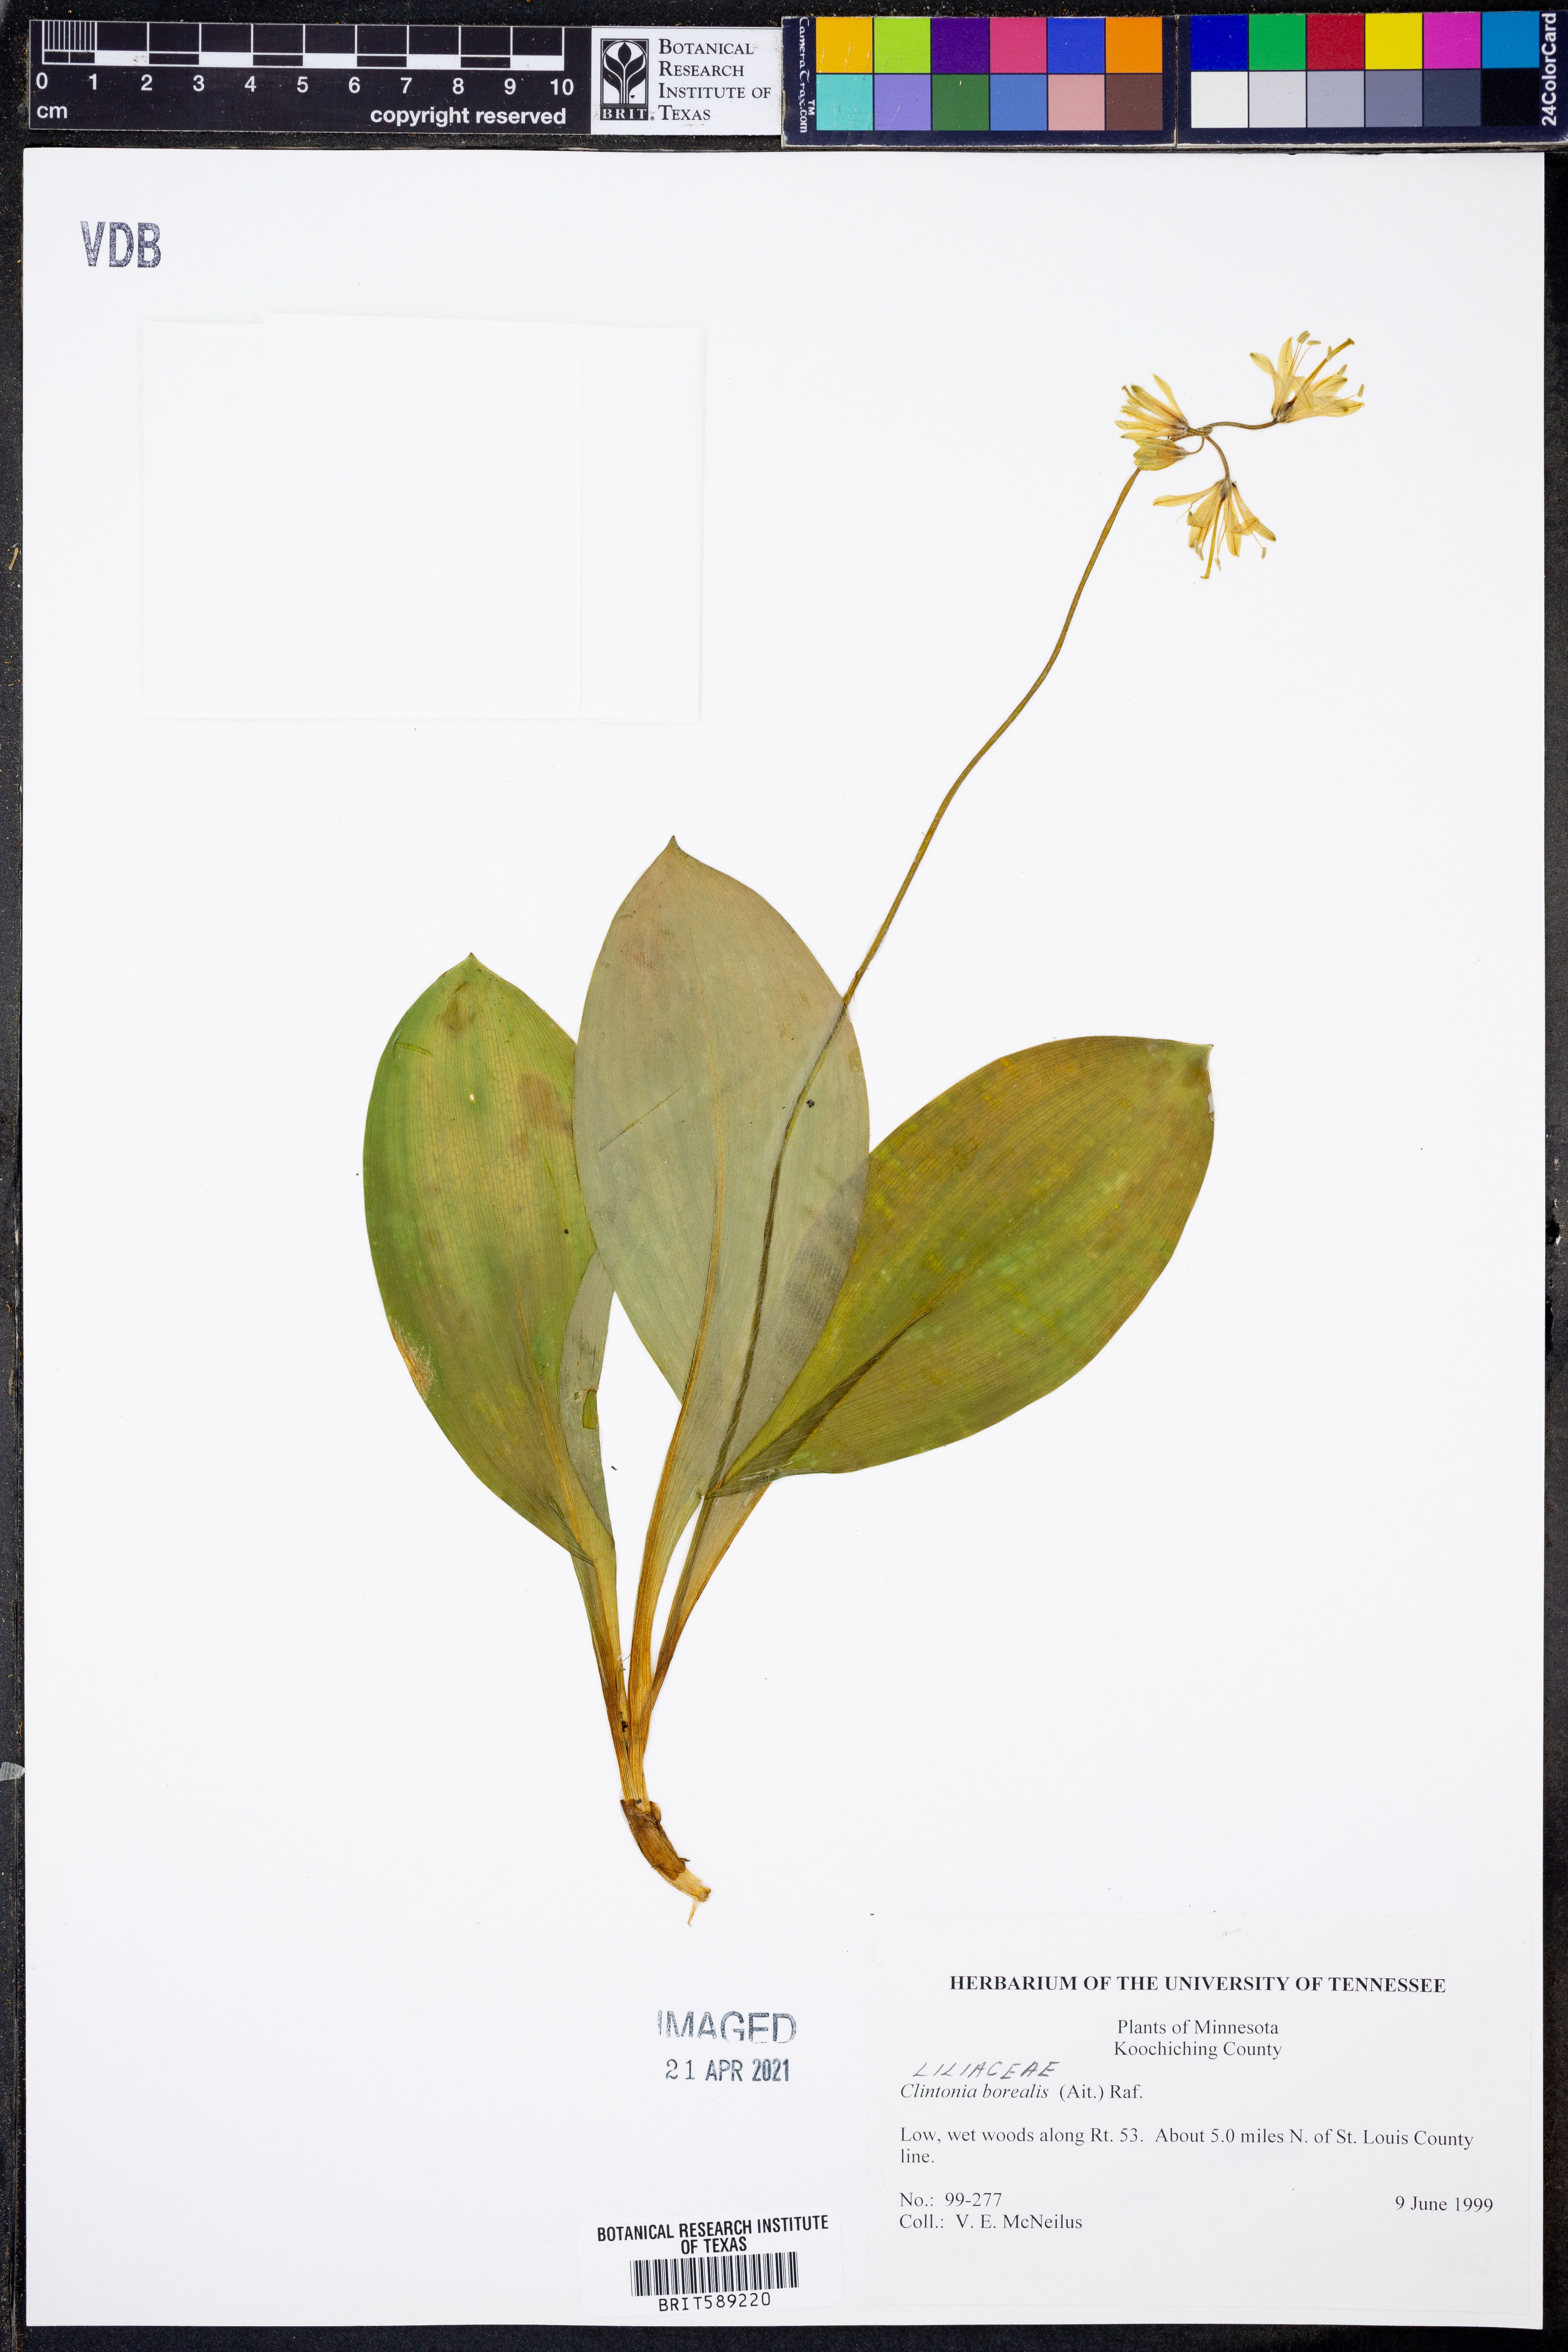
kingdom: Plantae
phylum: Tracheophyta
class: Liliopsida
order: Liliales
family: Liliaceae
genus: Clintonia
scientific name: Clintonia borealis
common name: Yellow clintonia
